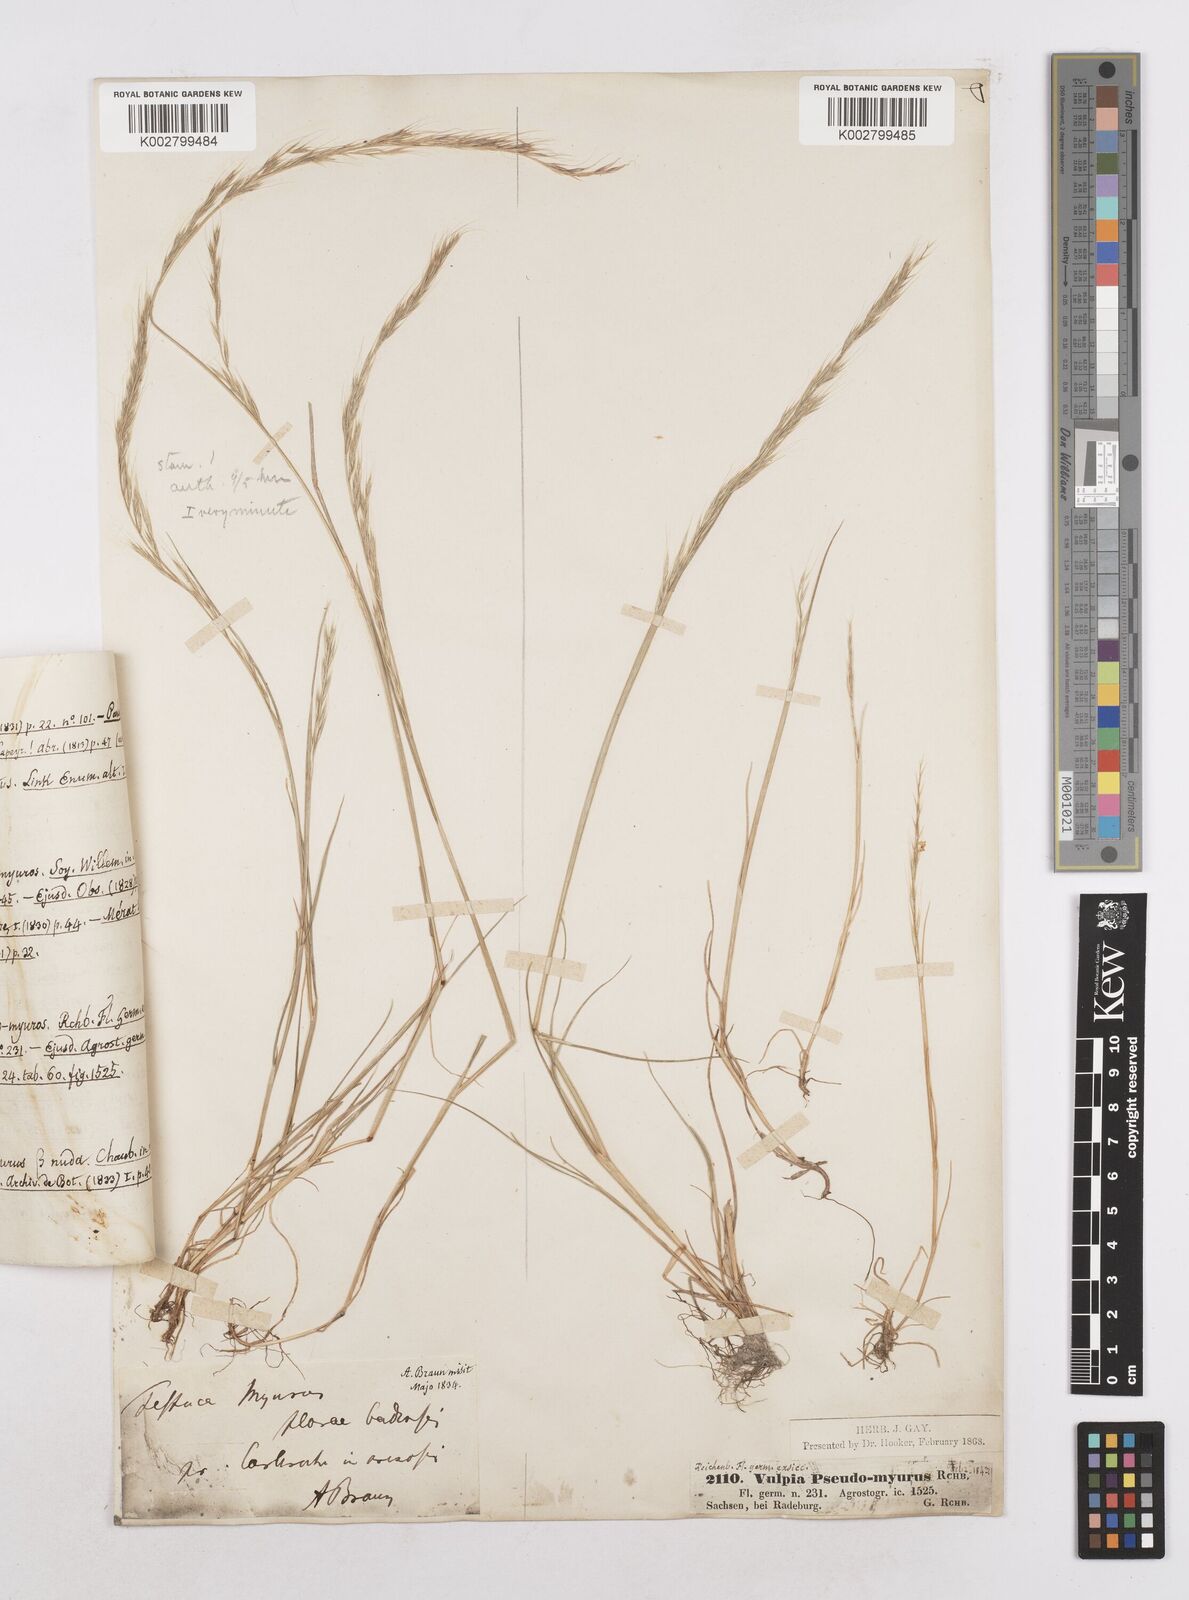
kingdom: Plantae
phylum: Tracheophyta
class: Liliopsida
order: Poales
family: Poaceae
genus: Festuca
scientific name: Festuca myuros
